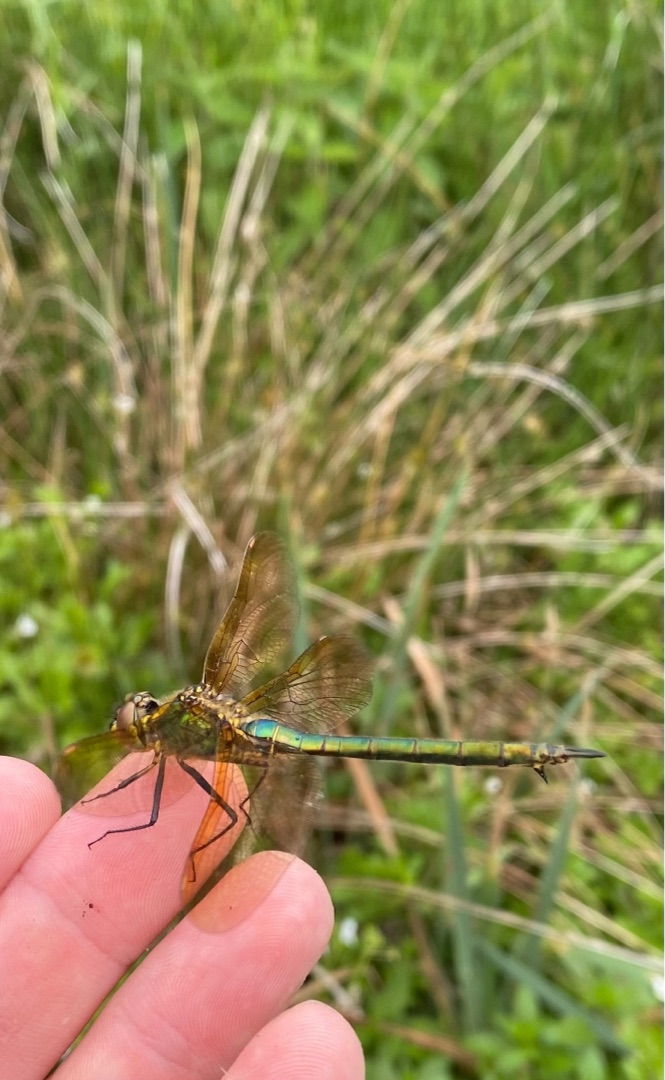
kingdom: Animalia
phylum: Arthropoda
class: Insecta
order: Odonata
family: Corduliidae
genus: Somatochlora
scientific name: Somatochlora metallica
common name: Glinsende smaragdlibel
